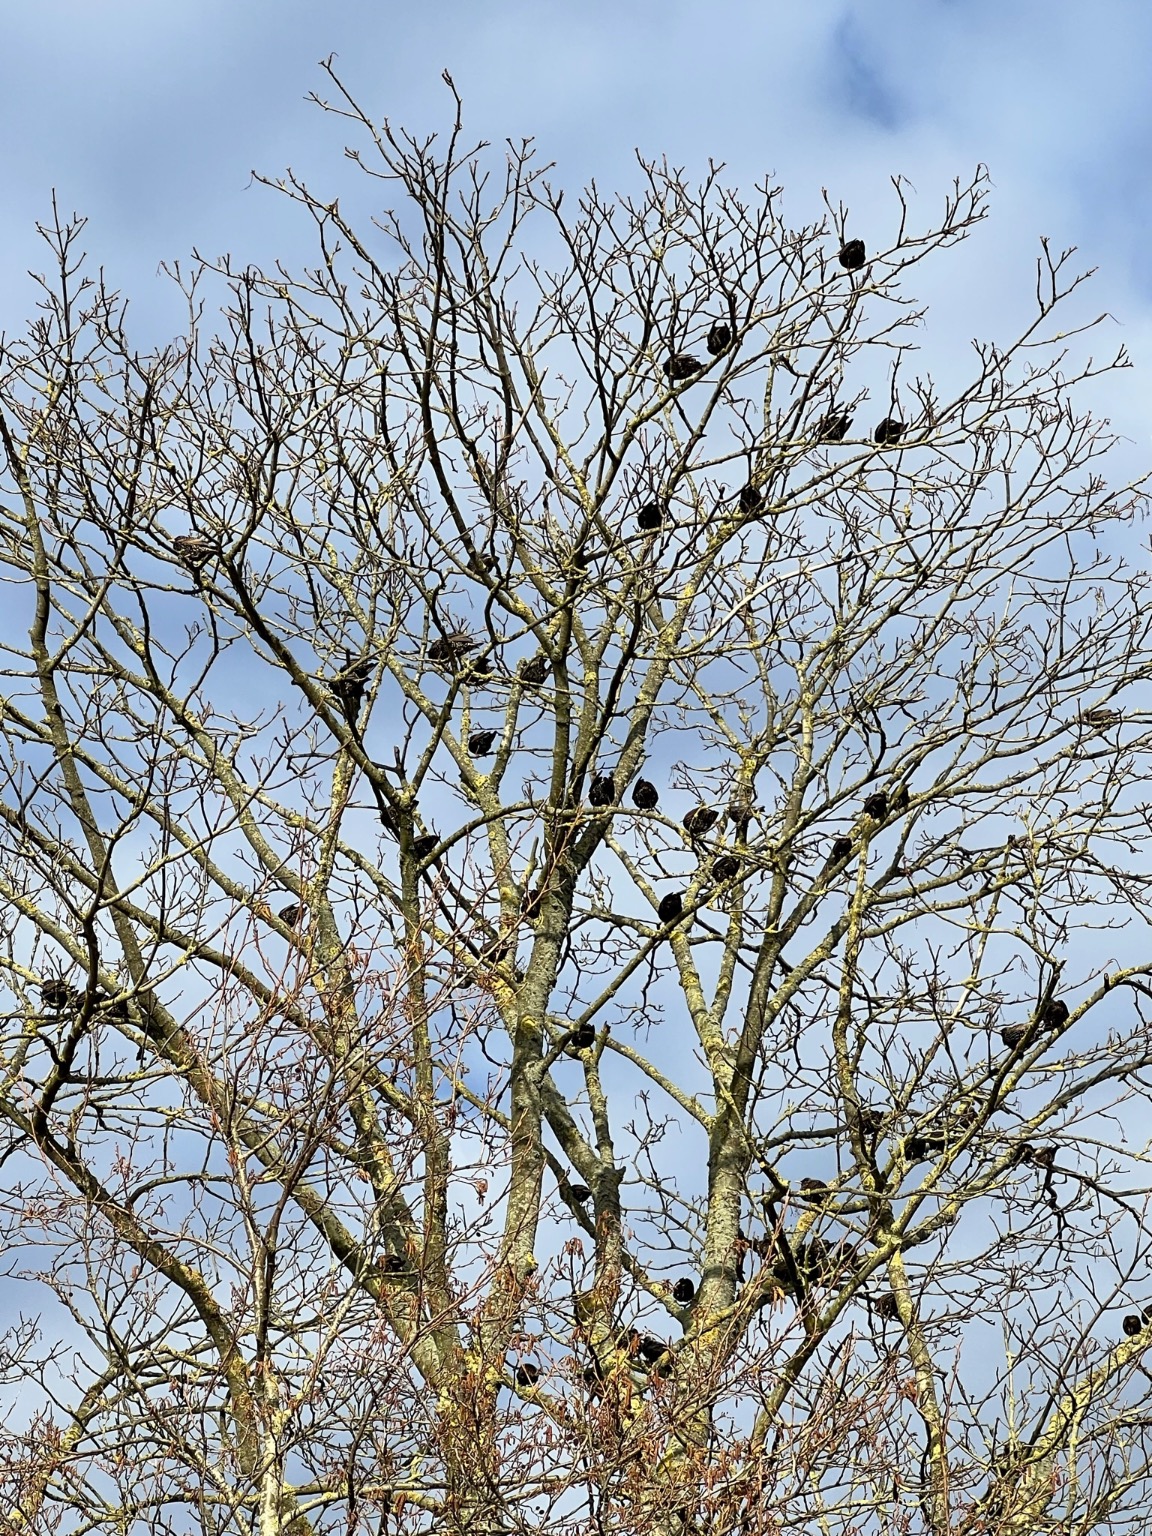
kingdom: Animalia
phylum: Chordata
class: Aves
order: Passeriformes
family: Sturnidae
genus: Sturnus
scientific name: Sturnus vulgaris
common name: Stær
